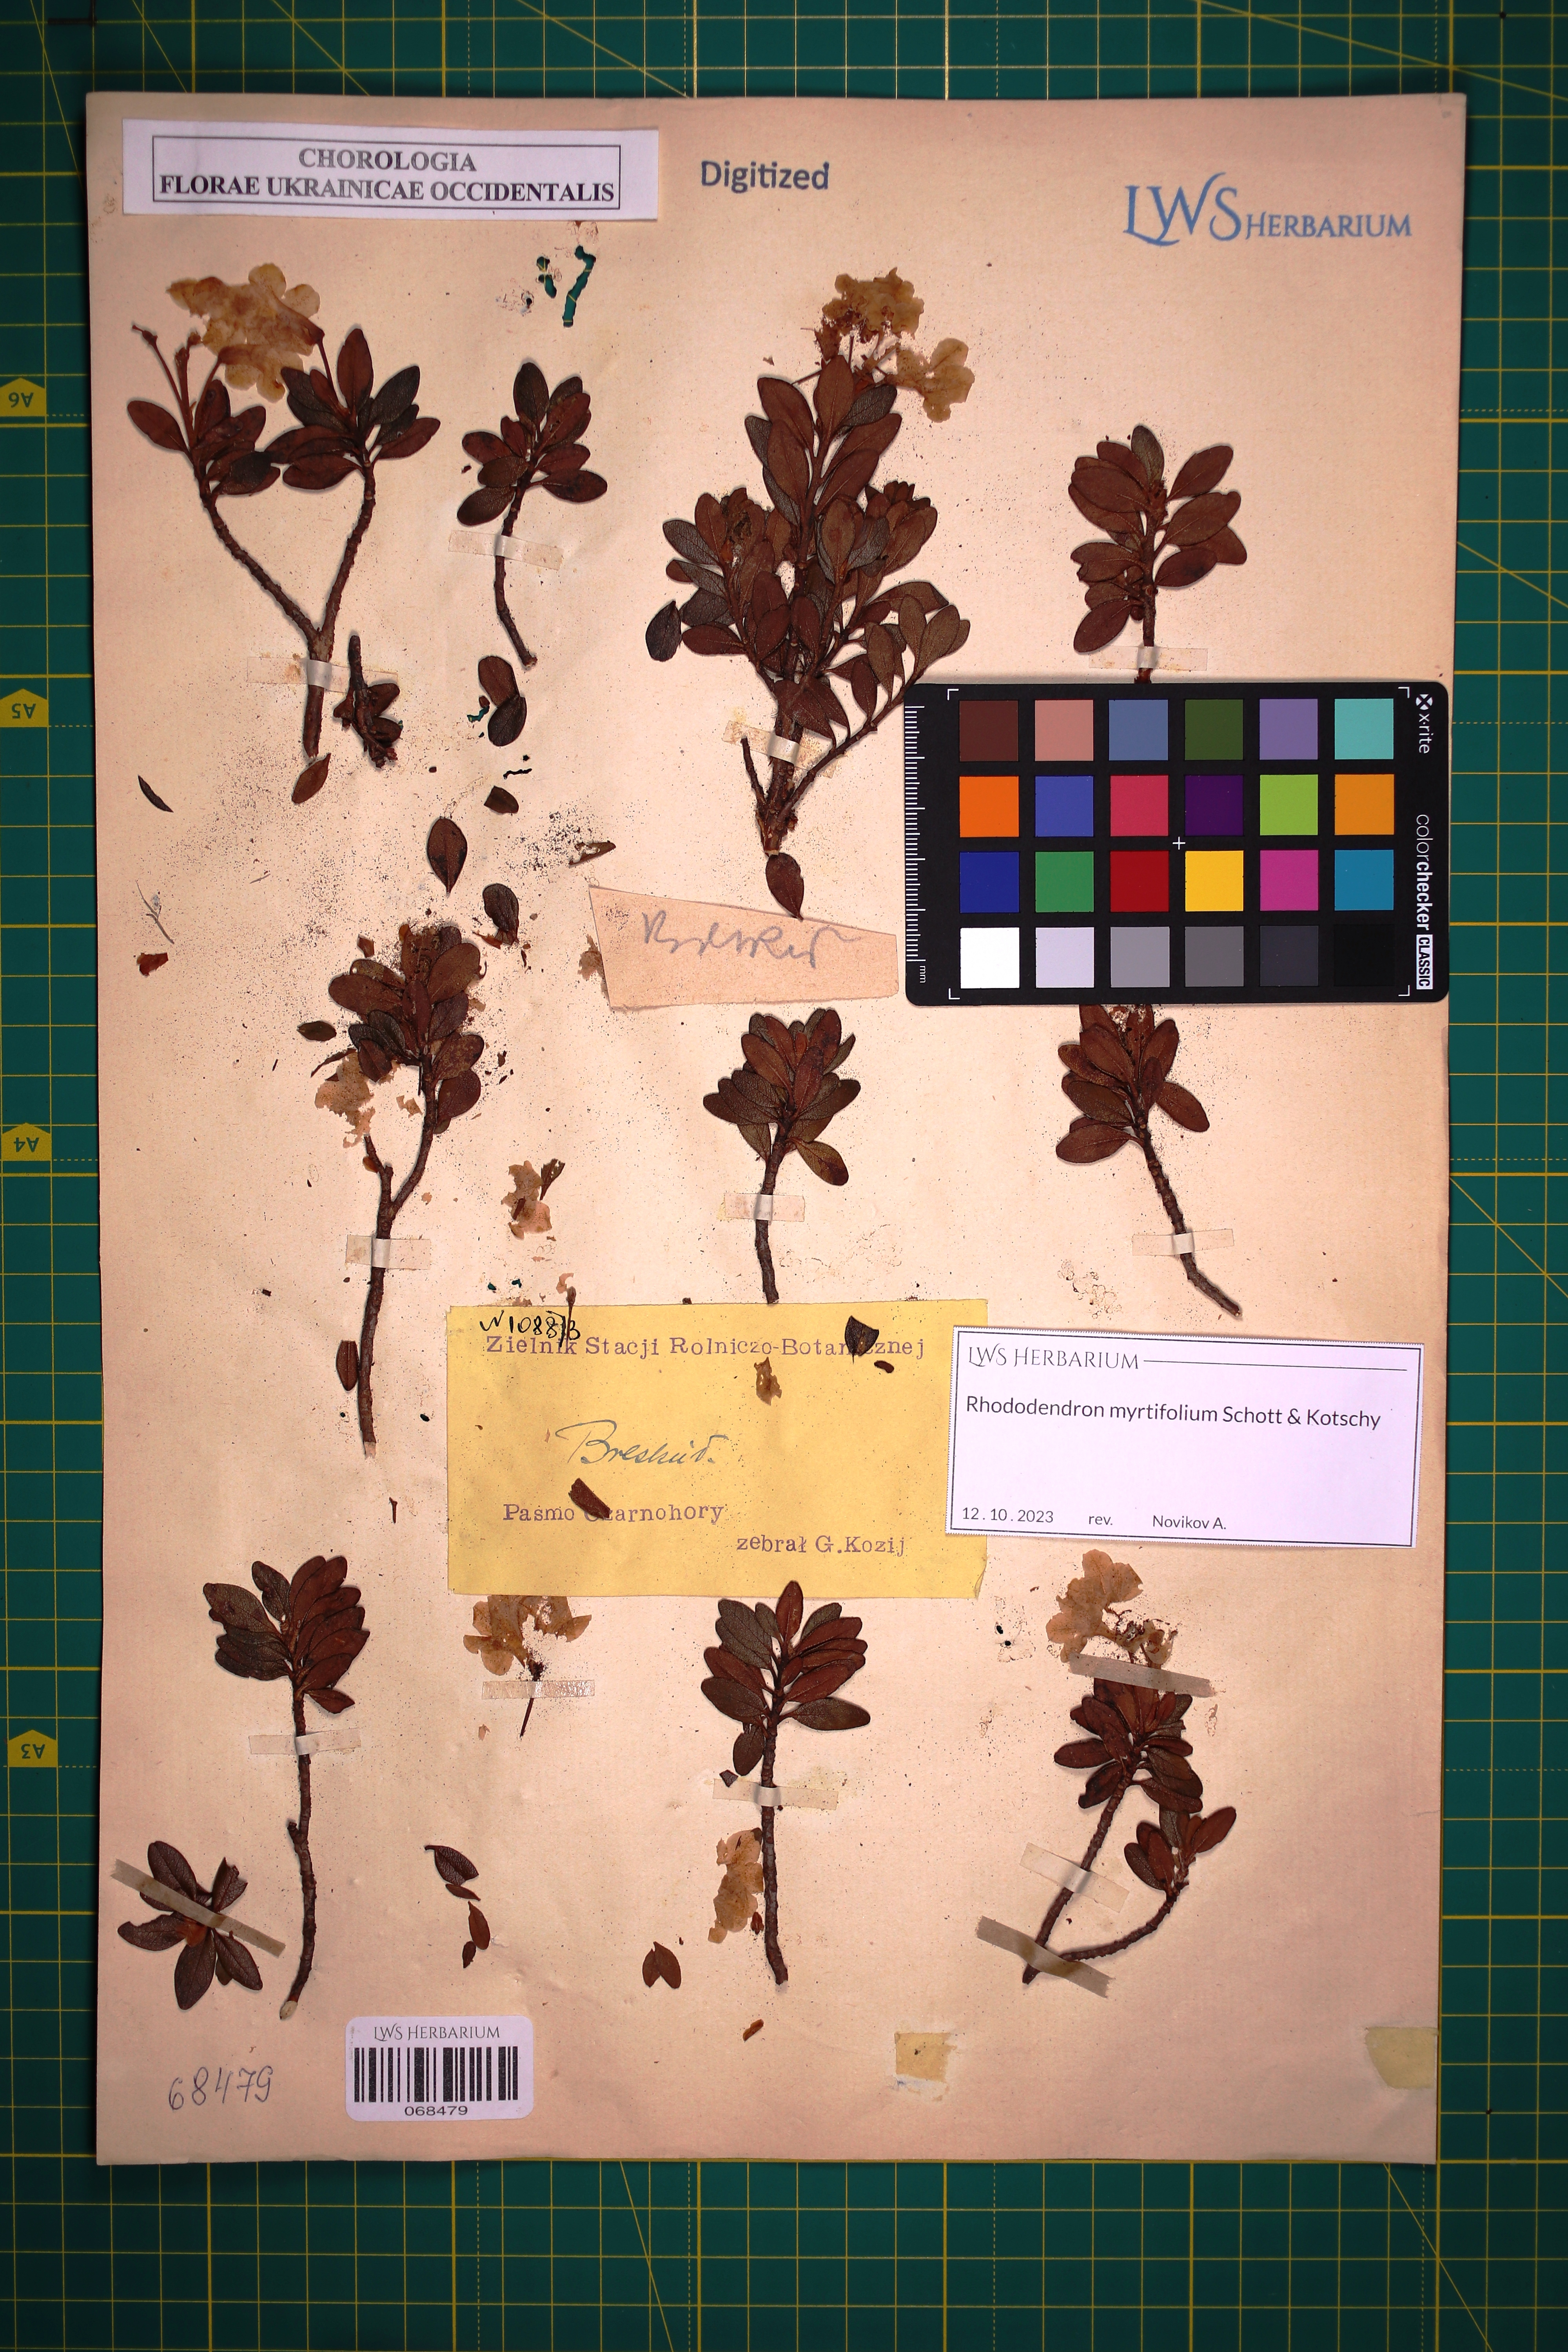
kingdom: Plantae
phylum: Tracheophyta
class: Magnoliopsida
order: Ericales
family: Ericaceae
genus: Rhododendron
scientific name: Rhododendron kotschyi
